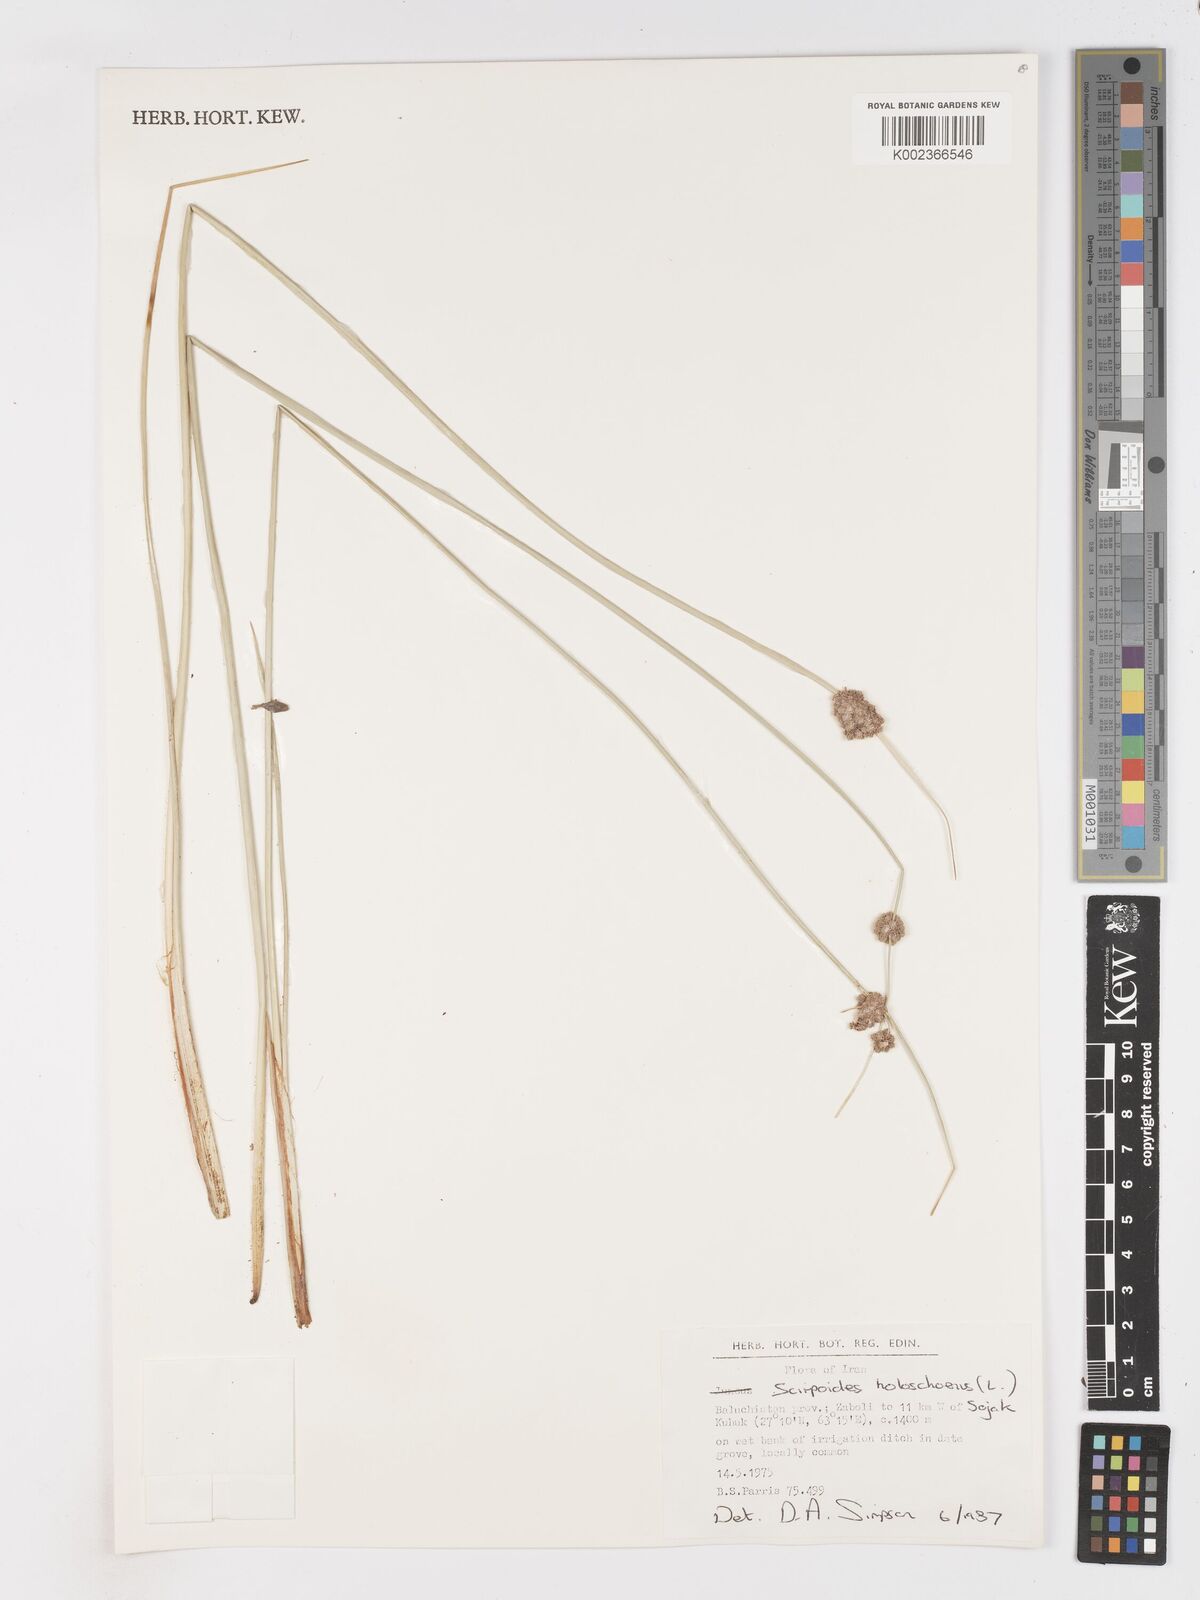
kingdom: Plantae
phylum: Tracheophyta
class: Liliopsida
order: Poales
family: Cyperaceae
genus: Scirpoides
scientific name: Scirpoides holoschoenus
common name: Round-headed club-rush
